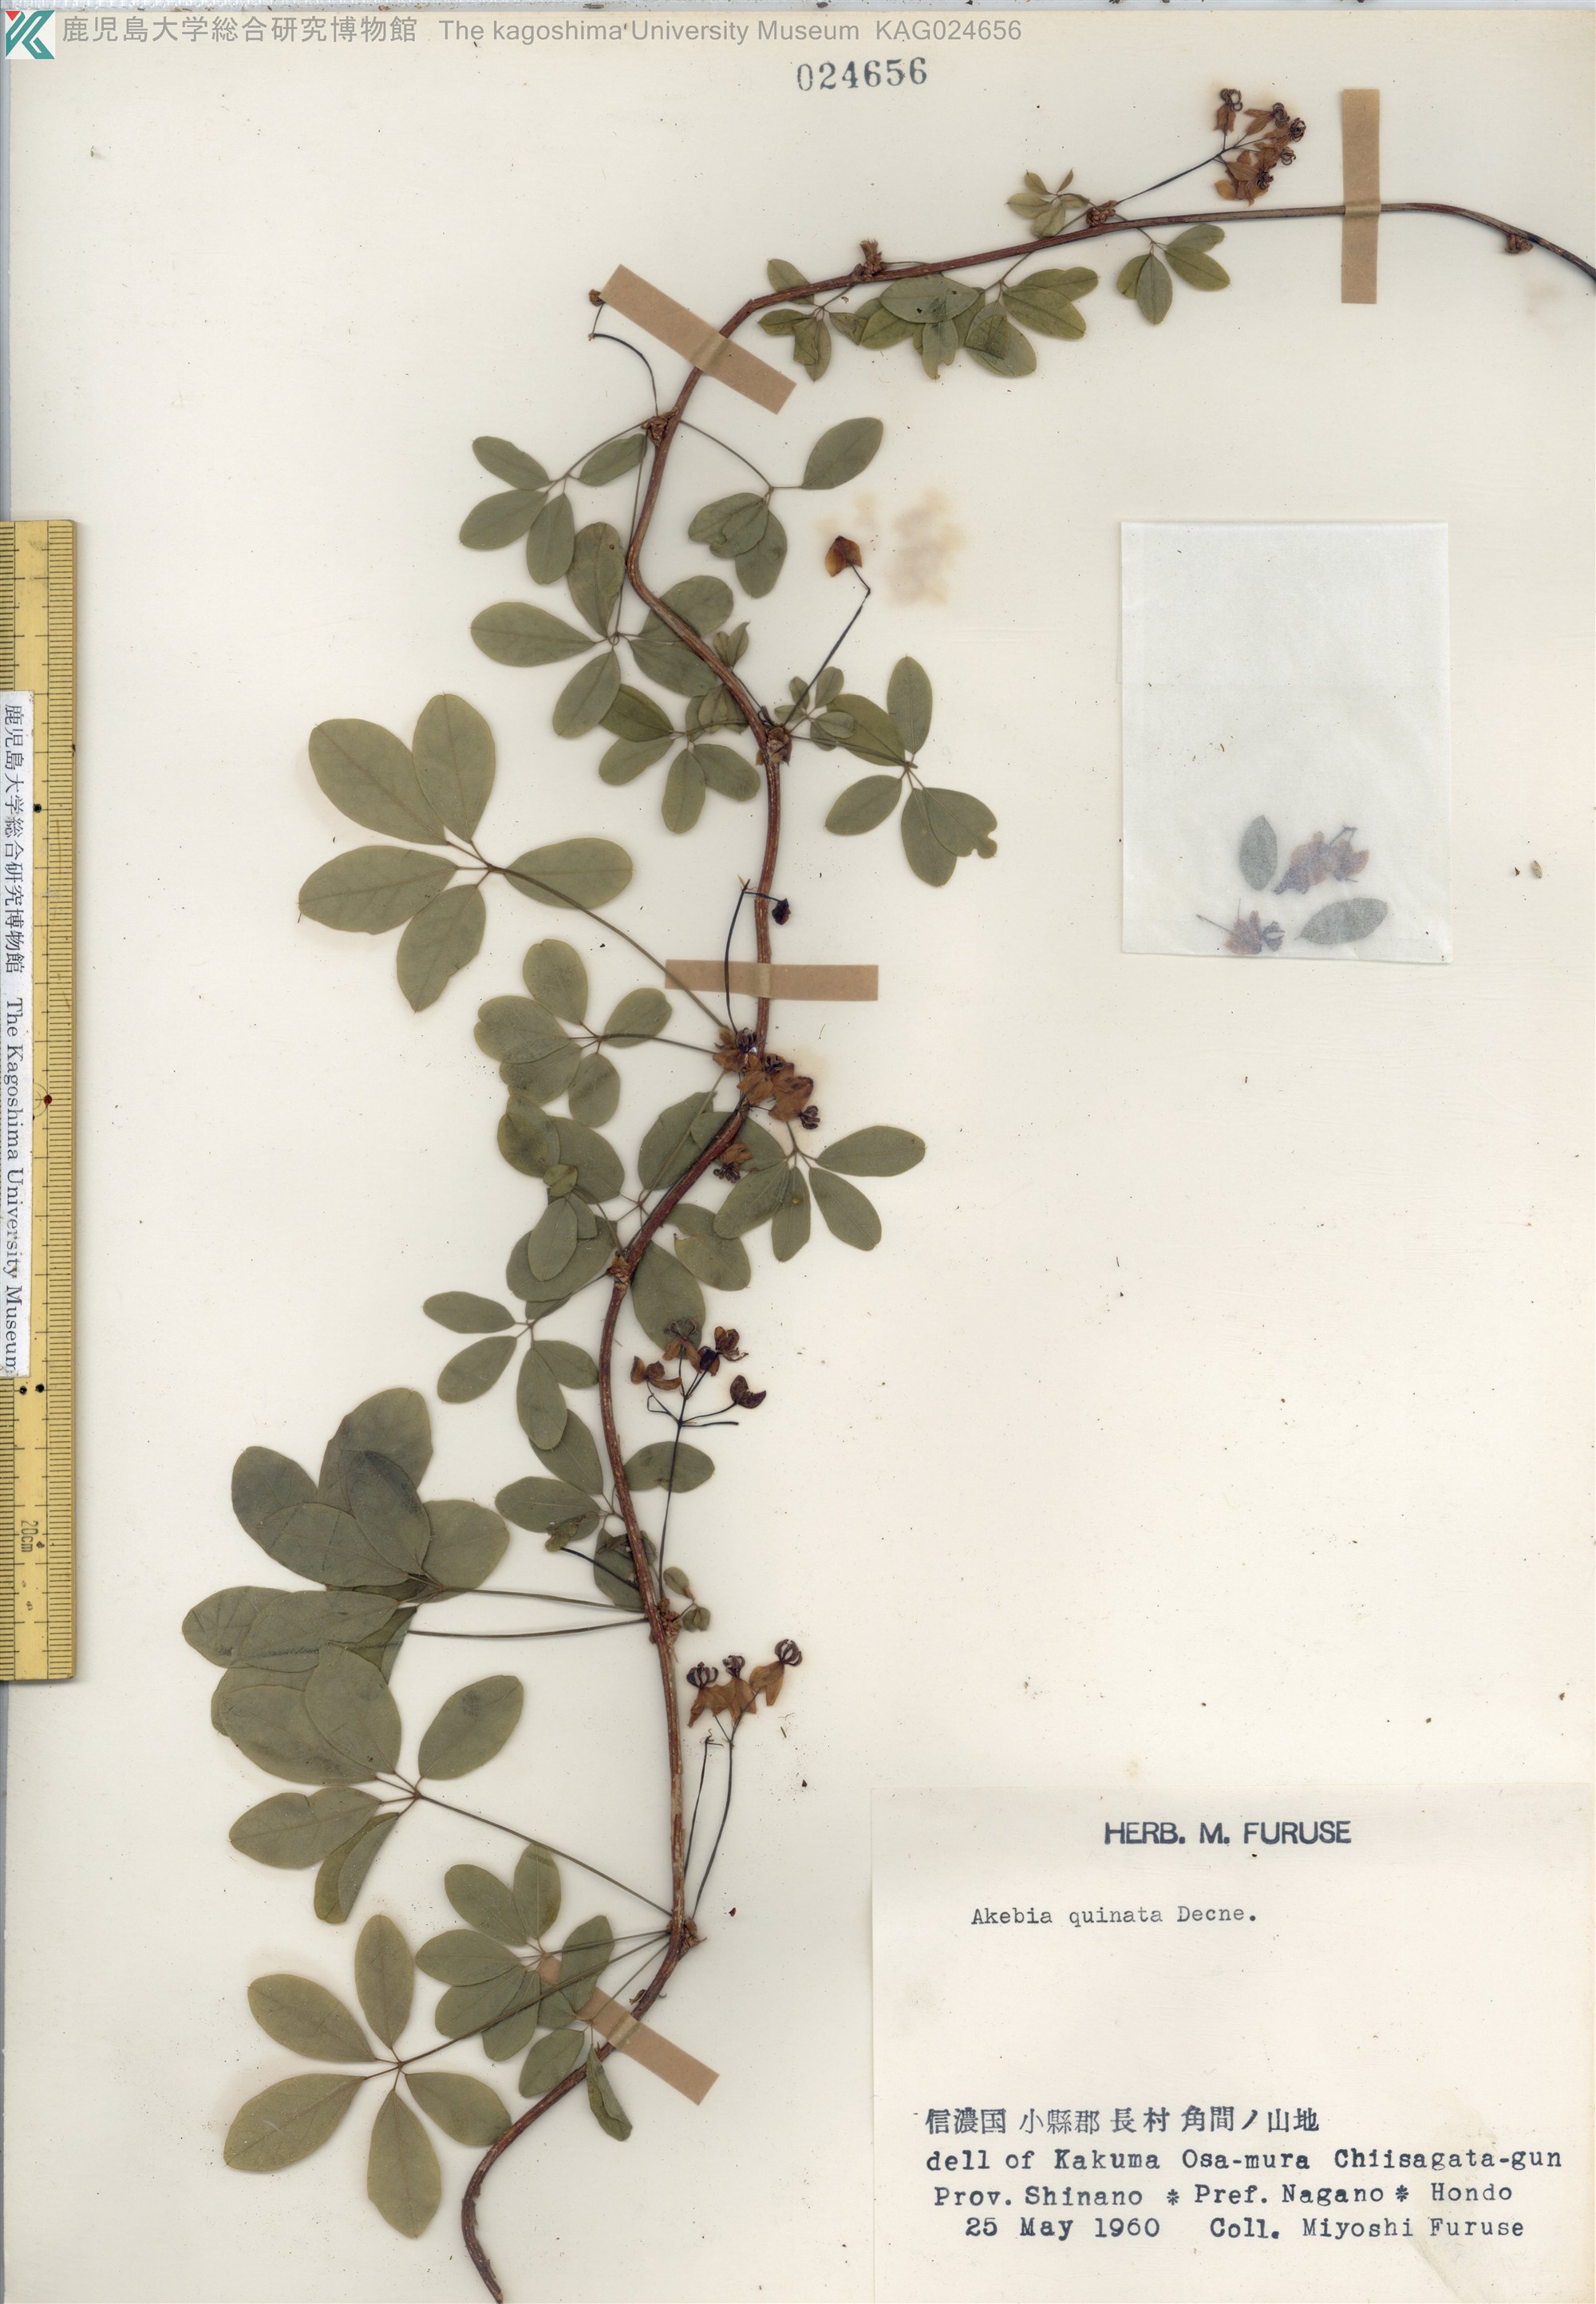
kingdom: Plantae
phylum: Tracheophyta
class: Magnoliopsida
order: Ranunculales
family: Lardizabalaceae
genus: Akebia
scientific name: Akebia quinata
